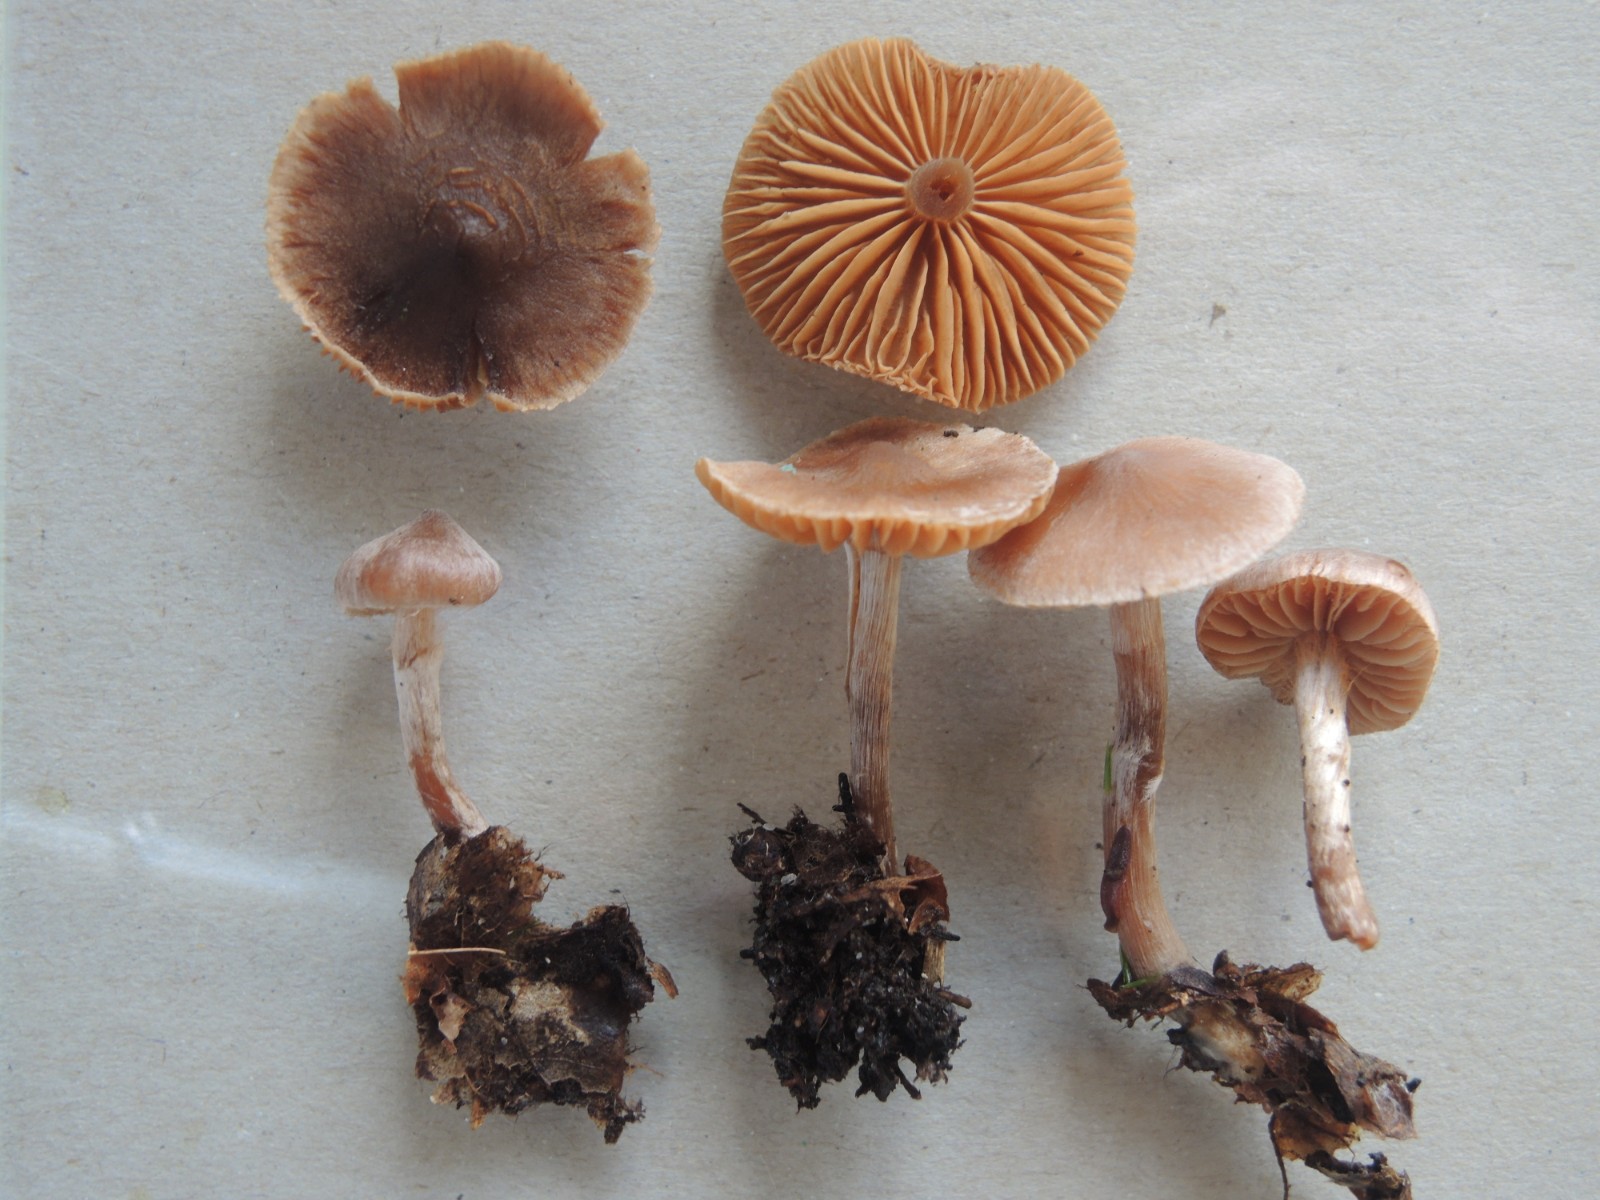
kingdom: Fungi
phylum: Basidiomycota
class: Agaricomycetes
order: Agaricales
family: Cortinariaceae
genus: Cortinarius
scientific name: Cortinarius annae-maritae
